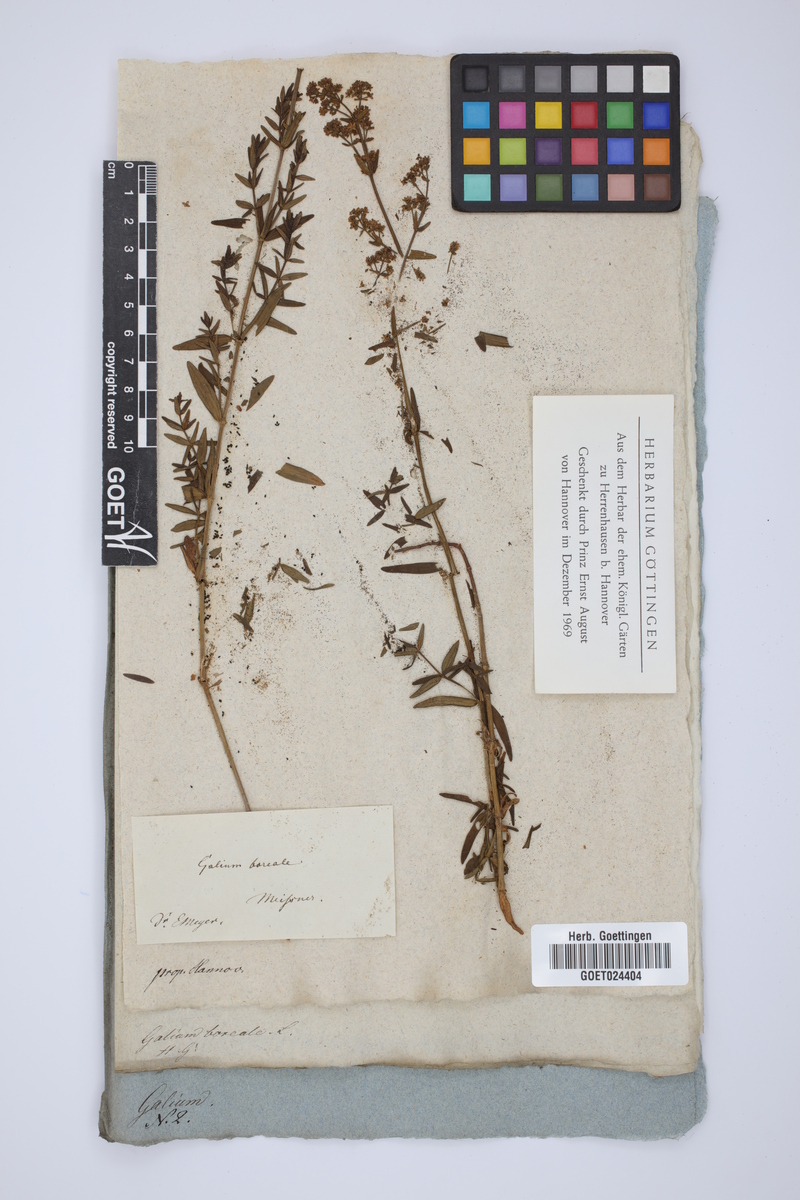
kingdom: Plantae
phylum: Tracheophyta
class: Magnoliopsida
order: Gentianales
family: Rubiaceae
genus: Galium
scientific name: Galium boreale
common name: Northern bedstraw
